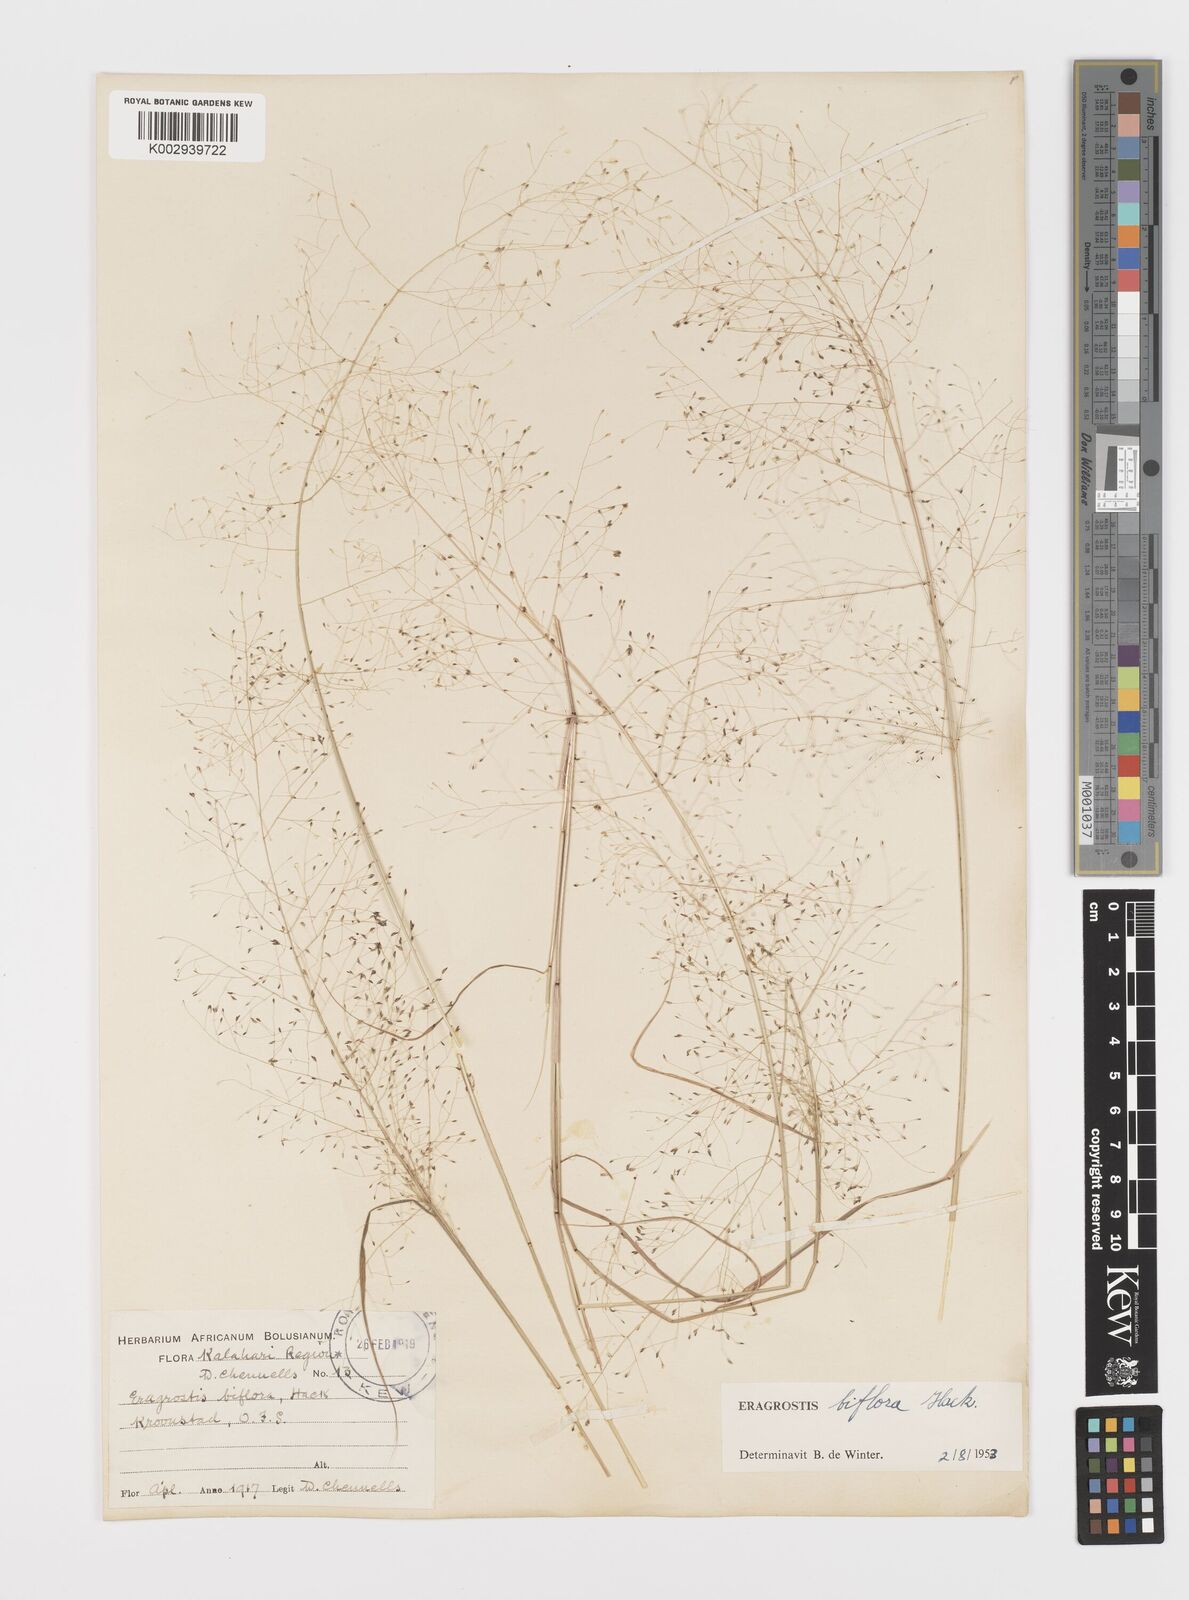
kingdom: Plantae
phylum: Tracheophyta
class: Liliopsida
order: Poales
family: Poaceae
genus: Eragrostis
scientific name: Eragrostis biflora
